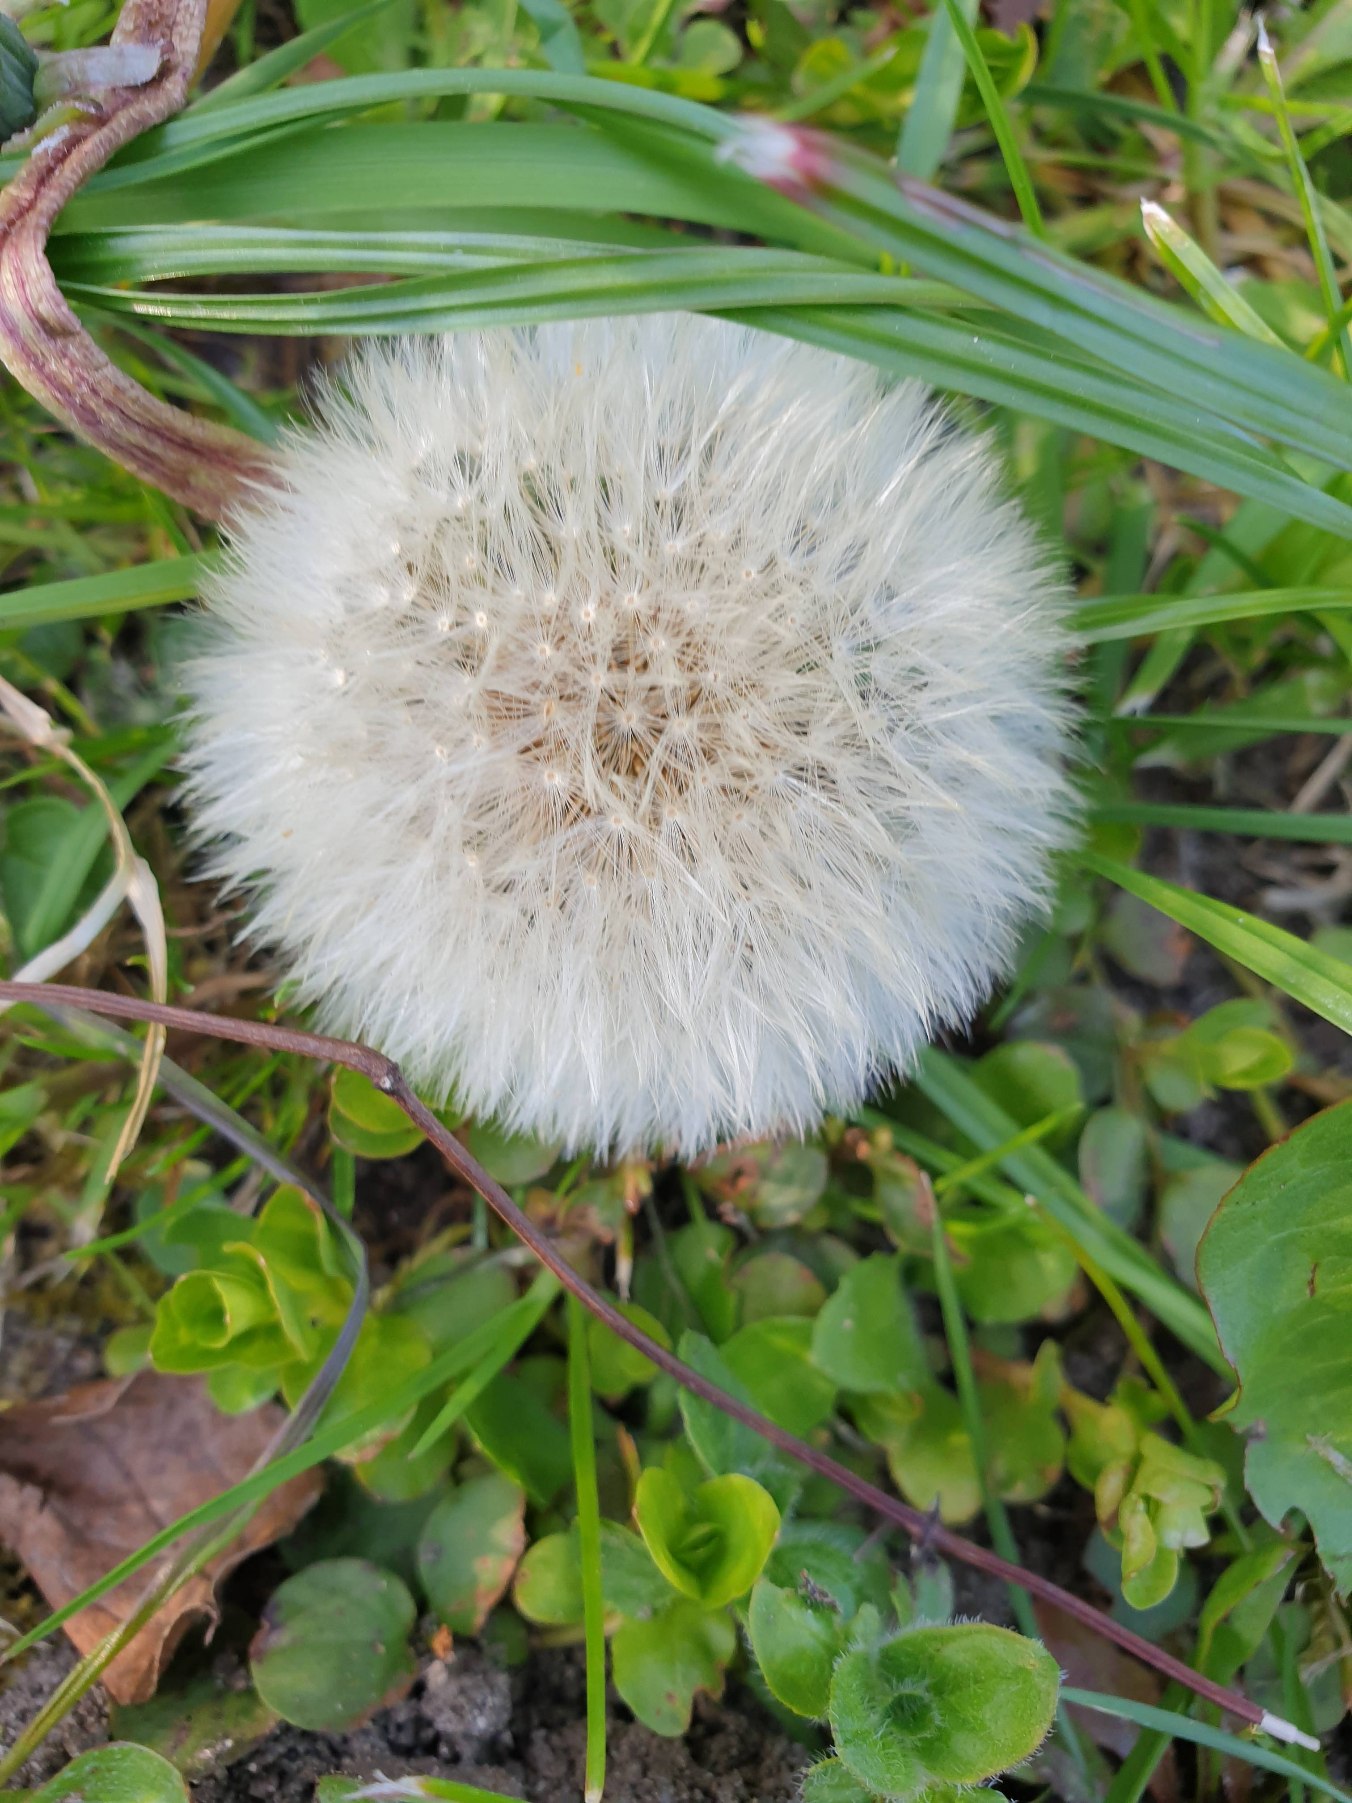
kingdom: Plantae
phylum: Tracheophyta
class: Magnoliopsida
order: Asterales
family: Asteraceae
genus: Taraxacum
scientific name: Taraxacum
